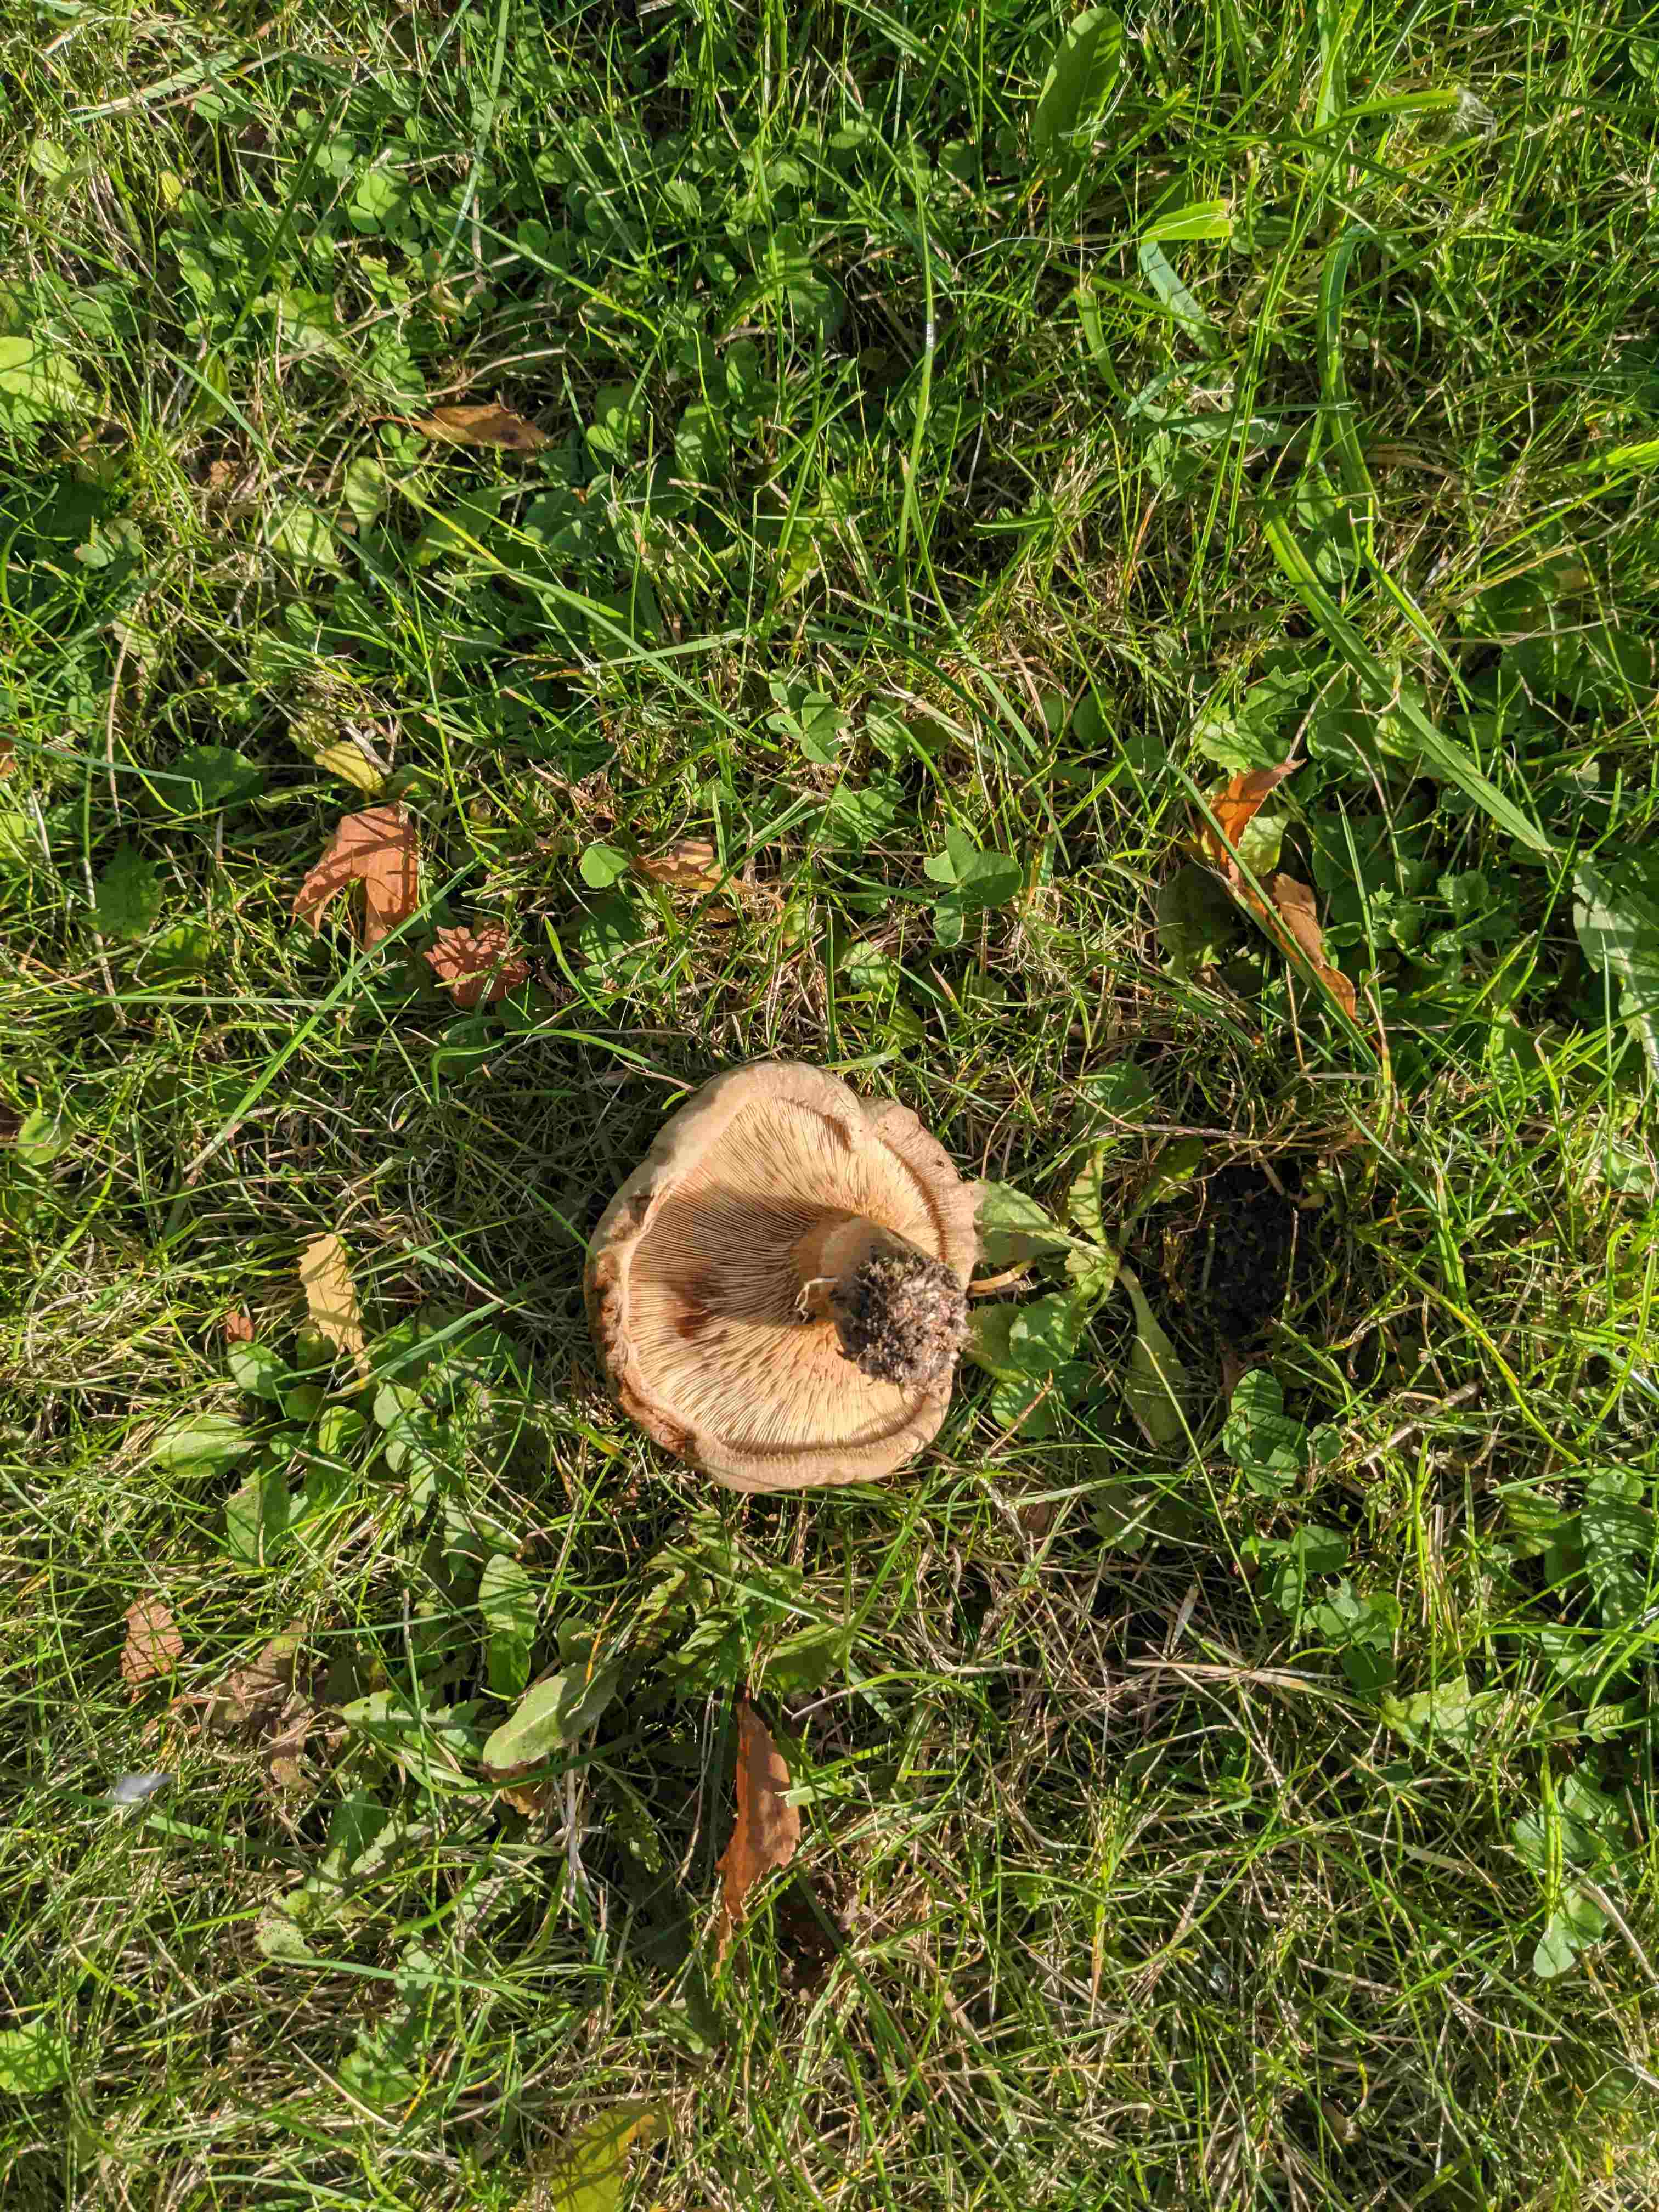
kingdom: Fungi
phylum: Basidiomycota
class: Agaricomycetes
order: Boletales
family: Paxillaceae
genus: Paxillus
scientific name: Paxillus
